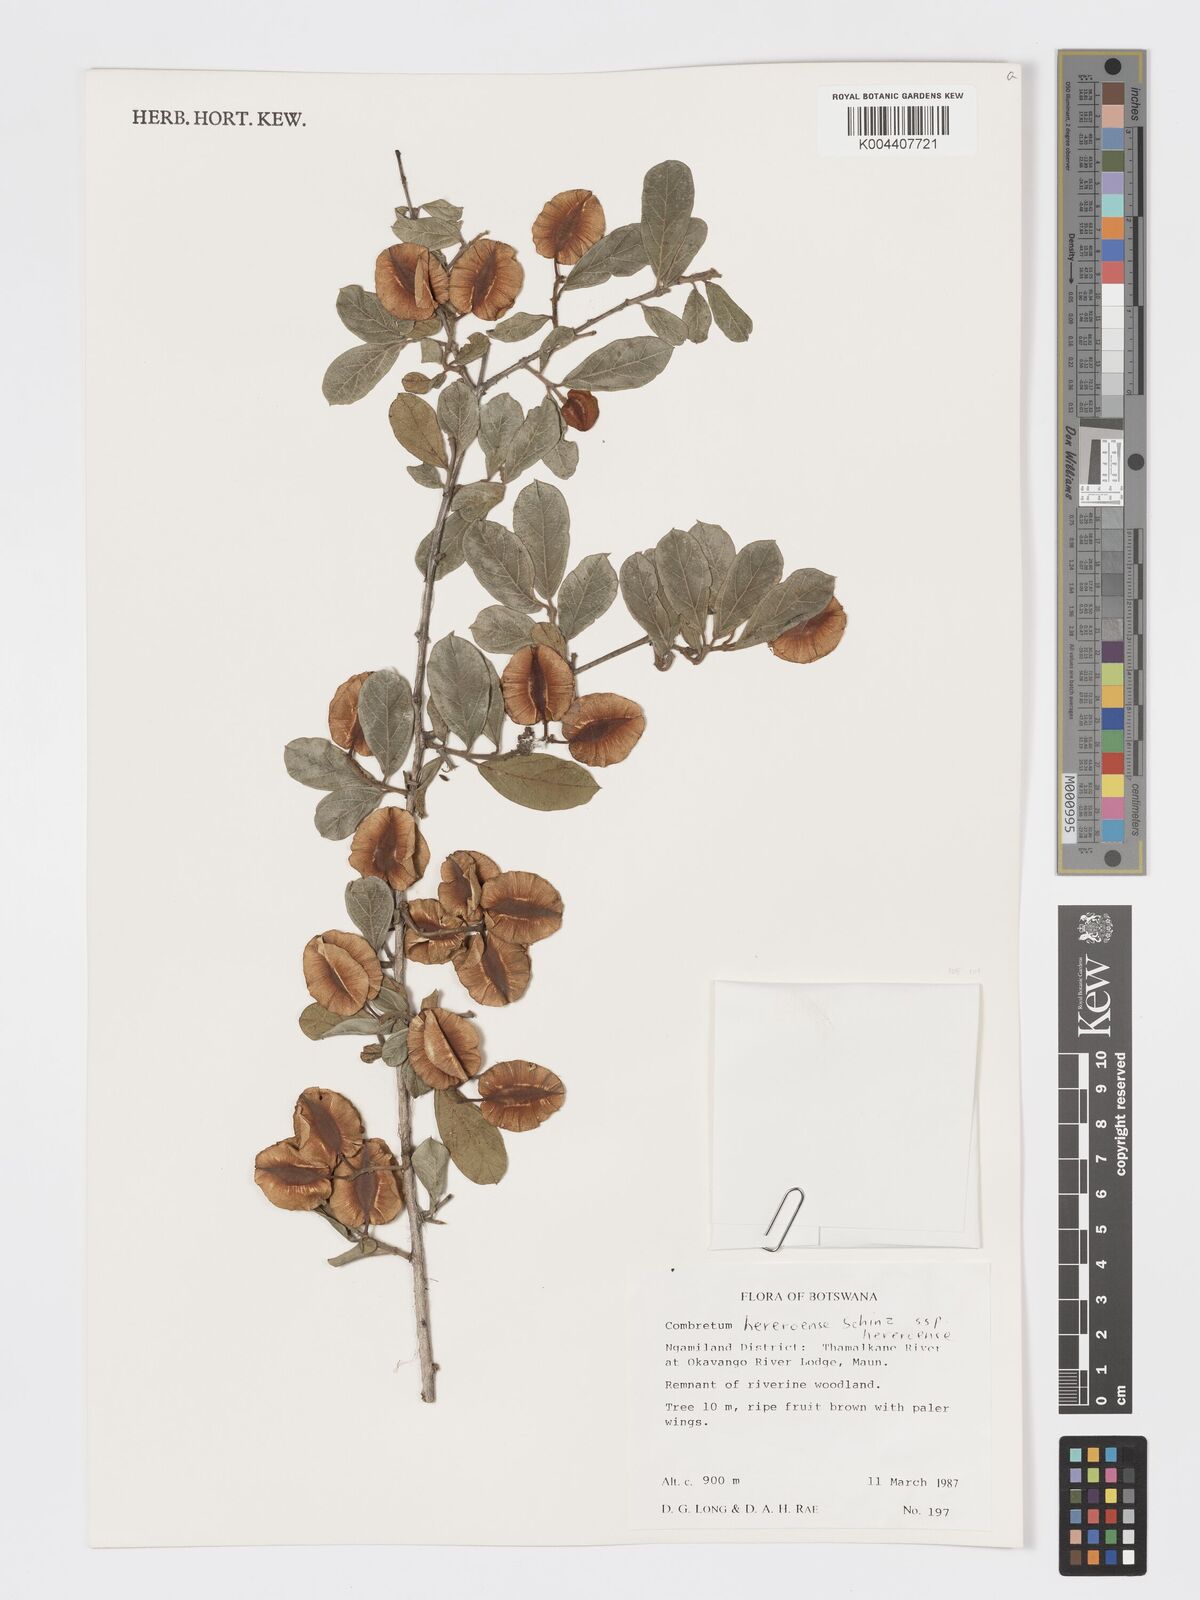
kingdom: Plantae
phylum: Tracheophyta
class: Magnoliopsida
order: Myrtales
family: Combretaceae
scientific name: Combretaceae
